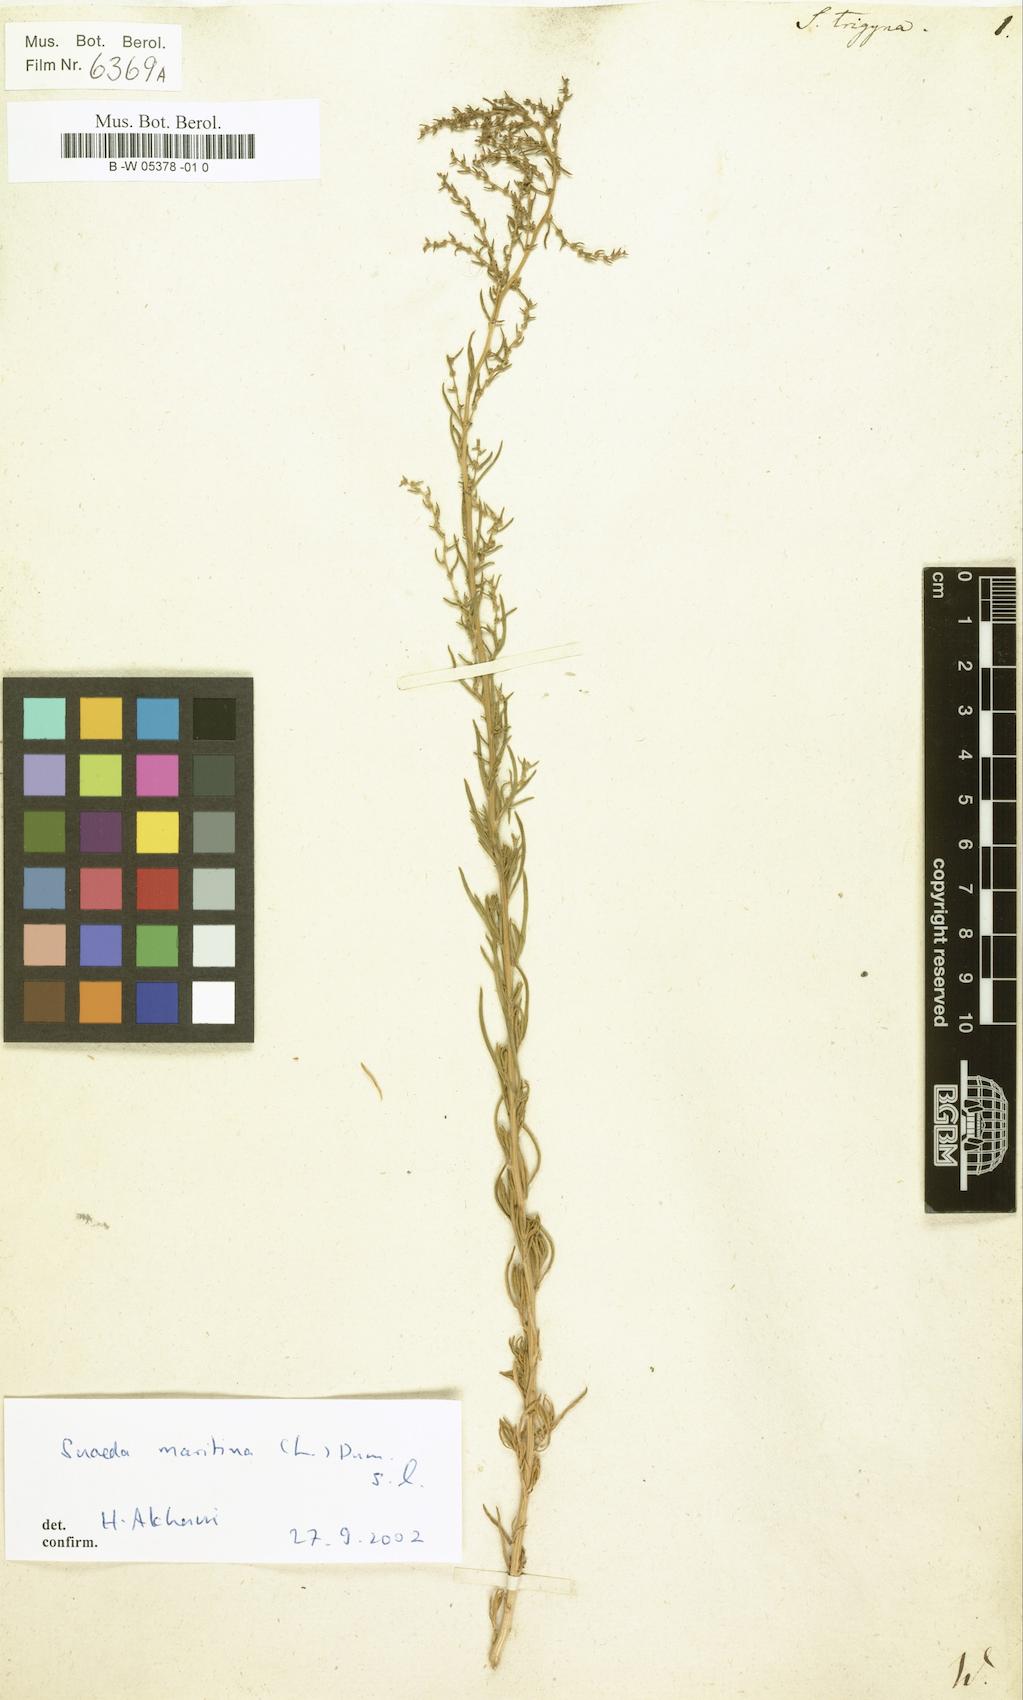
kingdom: Plantae
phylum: Tracheophyta
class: Magnoliopsida
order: Caryophyllales
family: Amaranthaceae
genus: Suaeda
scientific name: Suaeda
